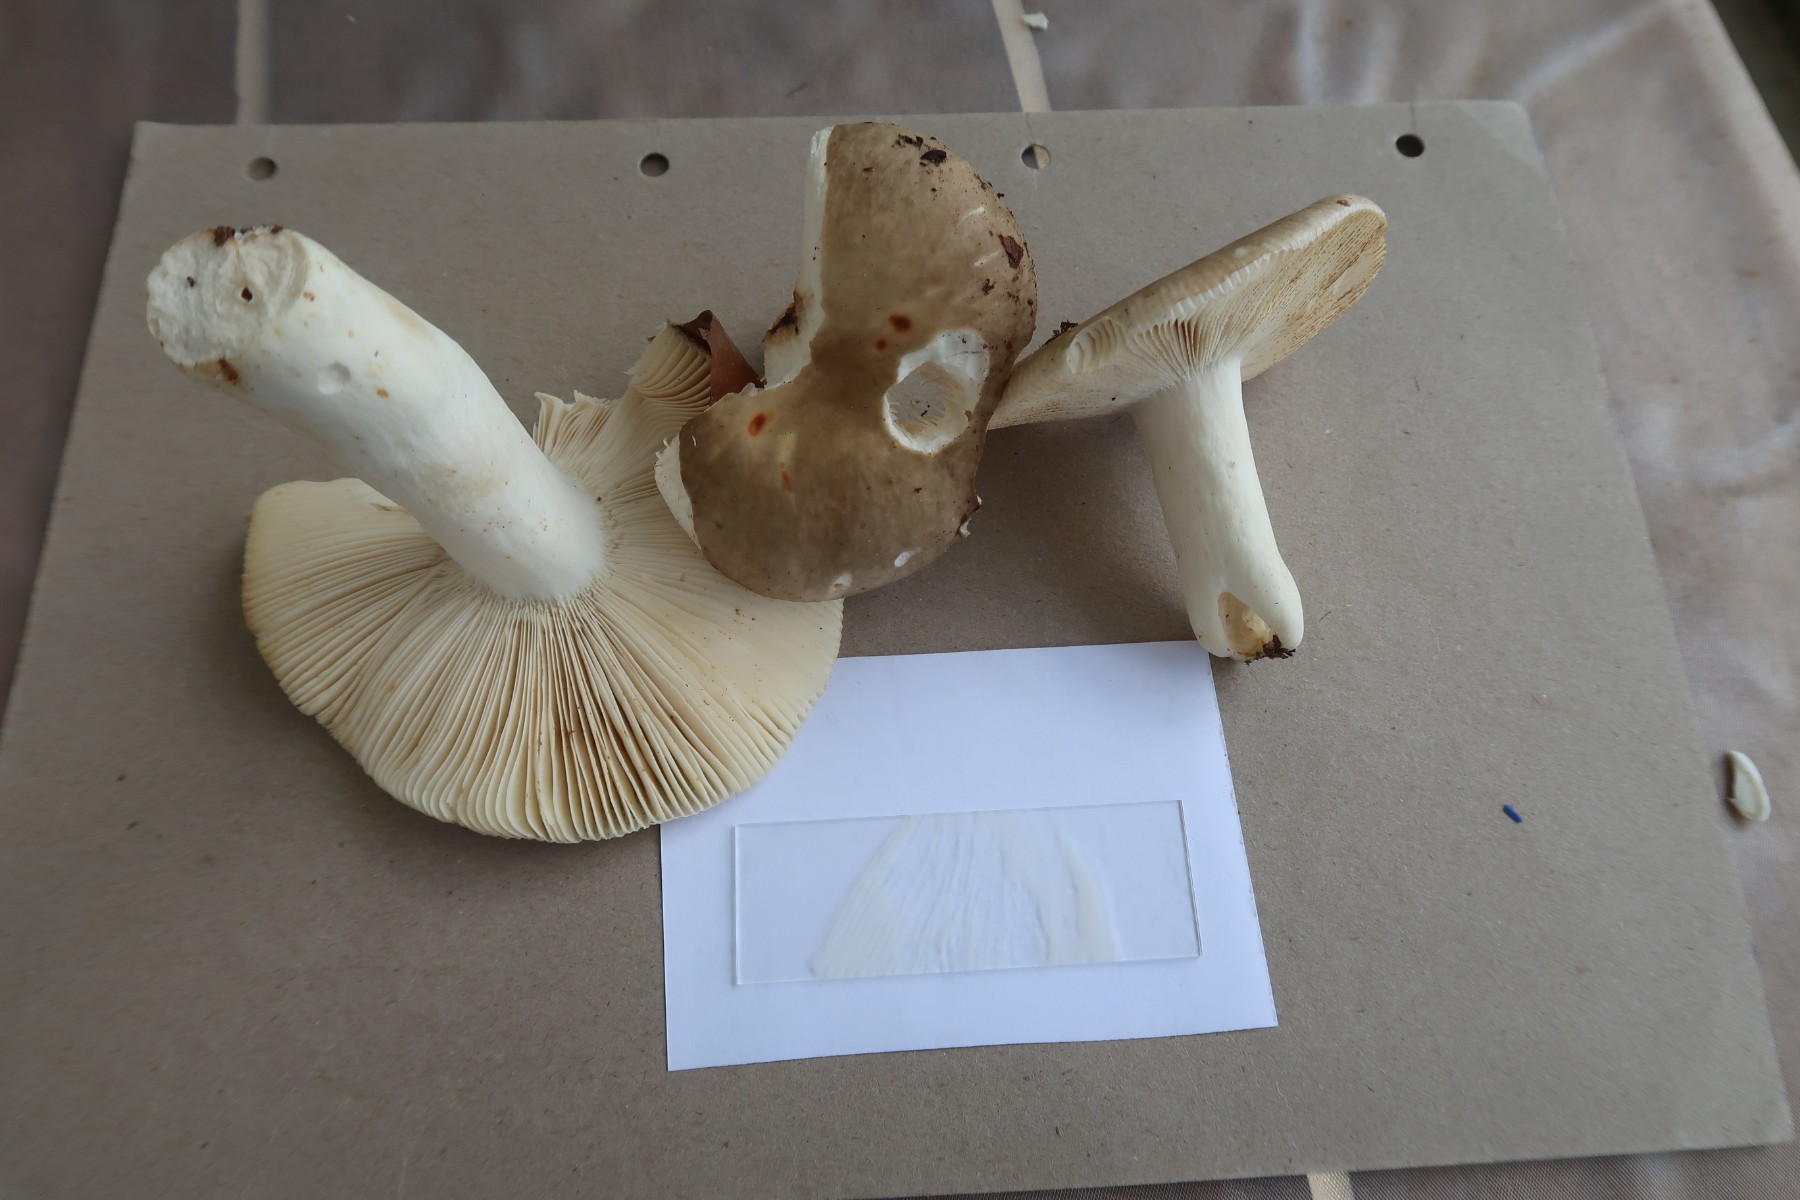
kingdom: Fungi
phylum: Basidiomycota
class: Agaricomycetes
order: Russulales
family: Russulaceae
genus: Russula
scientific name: Russula faustiana
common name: olivengrå skørhat
